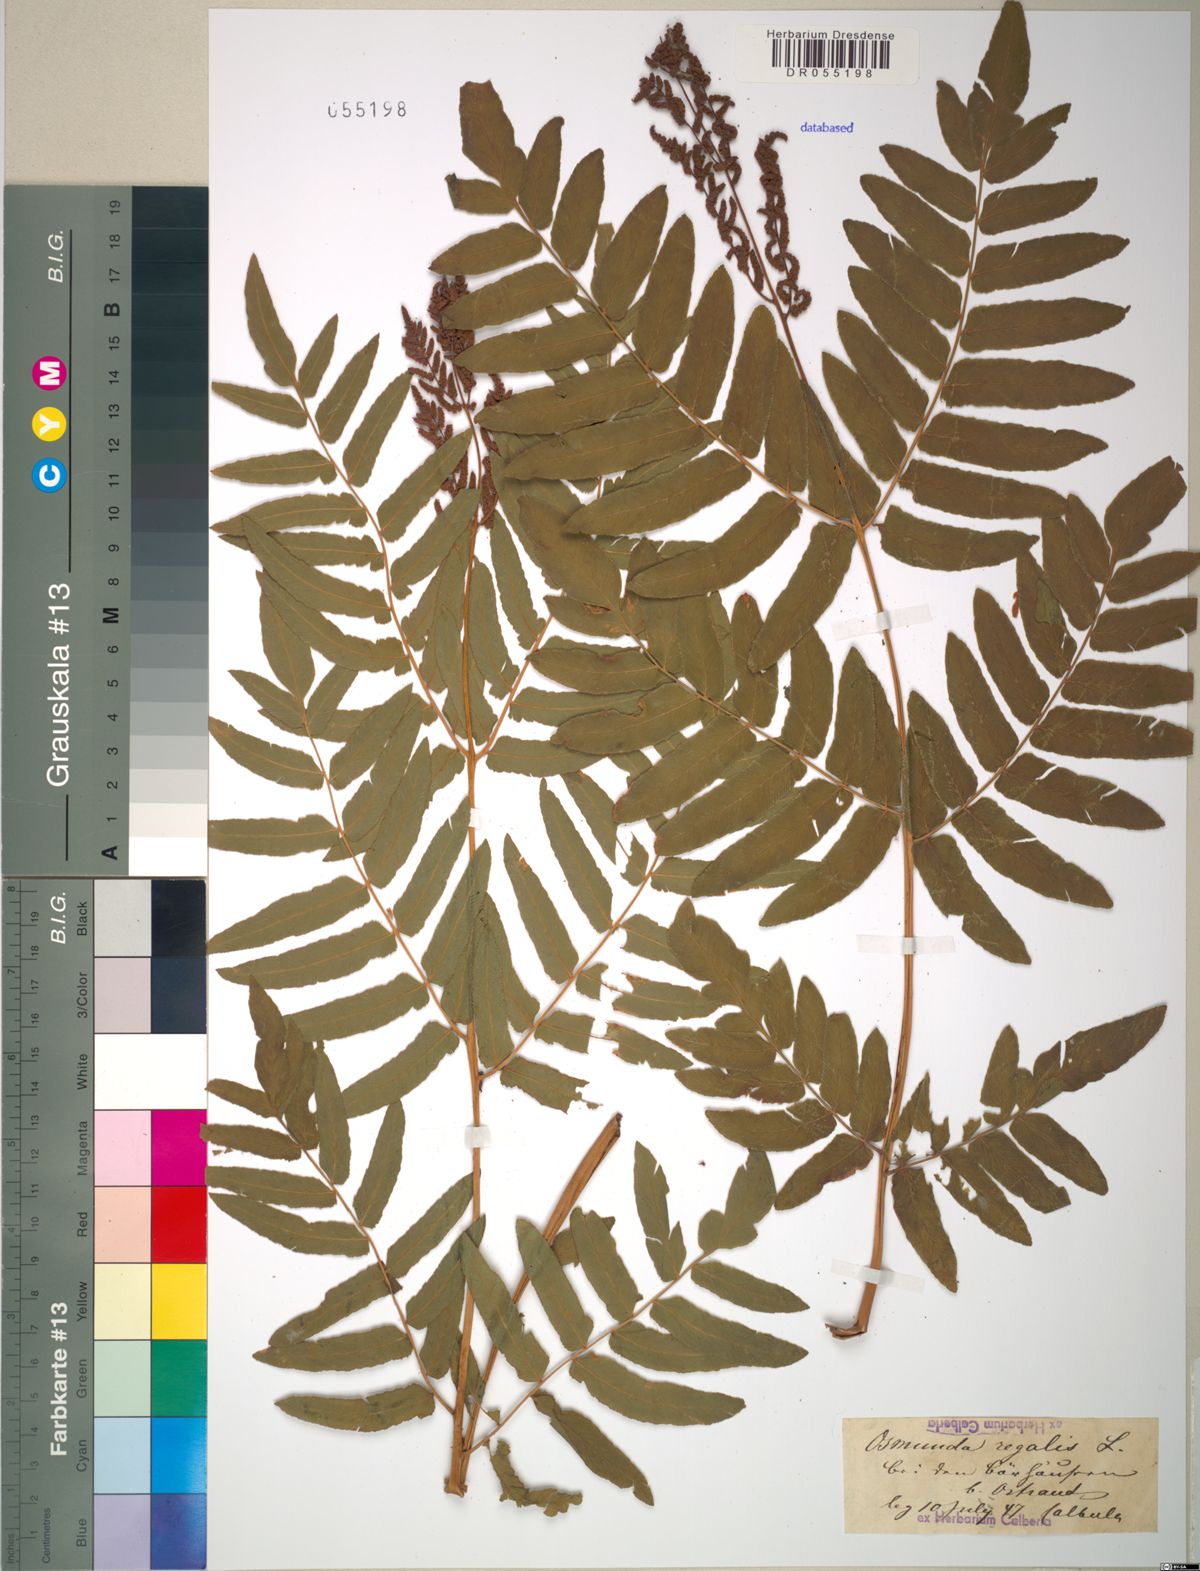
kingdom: Plantae
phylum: Tracheophyta
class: Polypodiopsida
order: Osmundales
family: Osmundaceae
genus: Osmunda
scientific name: Osmunda regalis
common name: Royal fern
